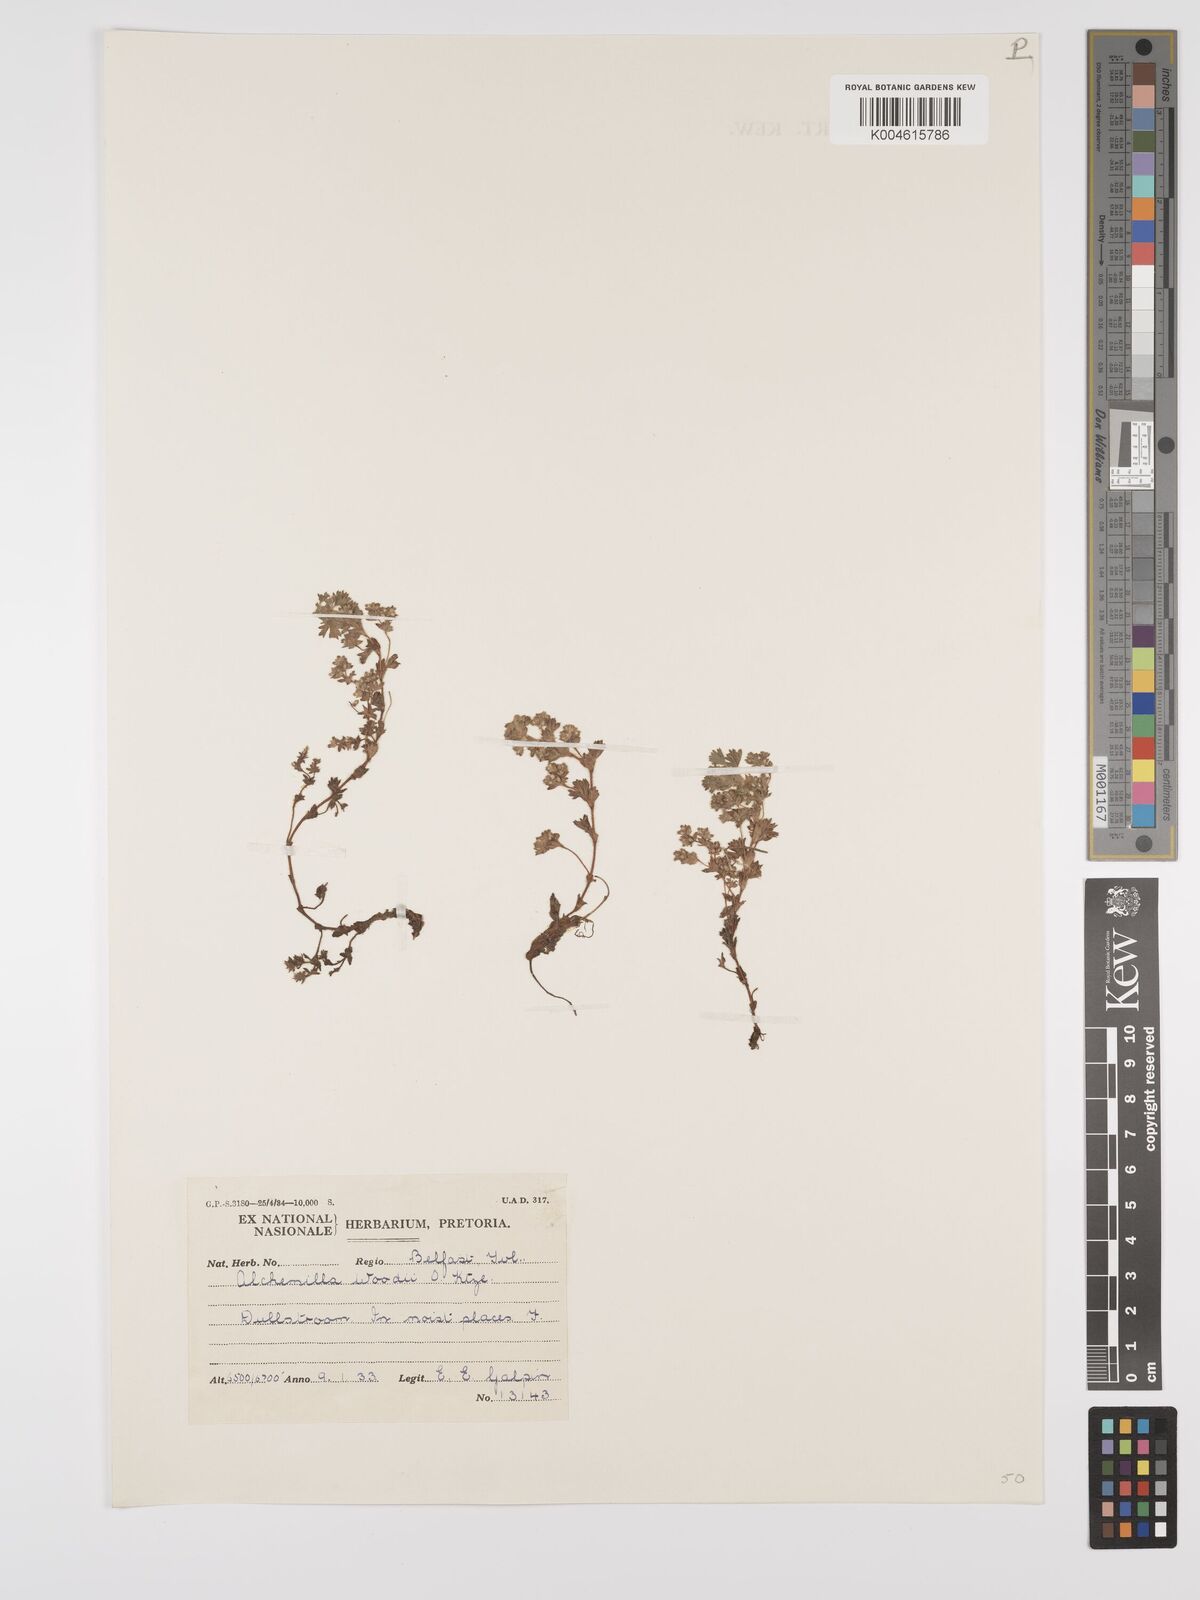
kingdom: Plantae
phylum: Tracheophyta
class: Magnoliopsida
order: Rosales
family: Rosaceae
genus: Alchemilla
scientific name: Alchemilla woodii
